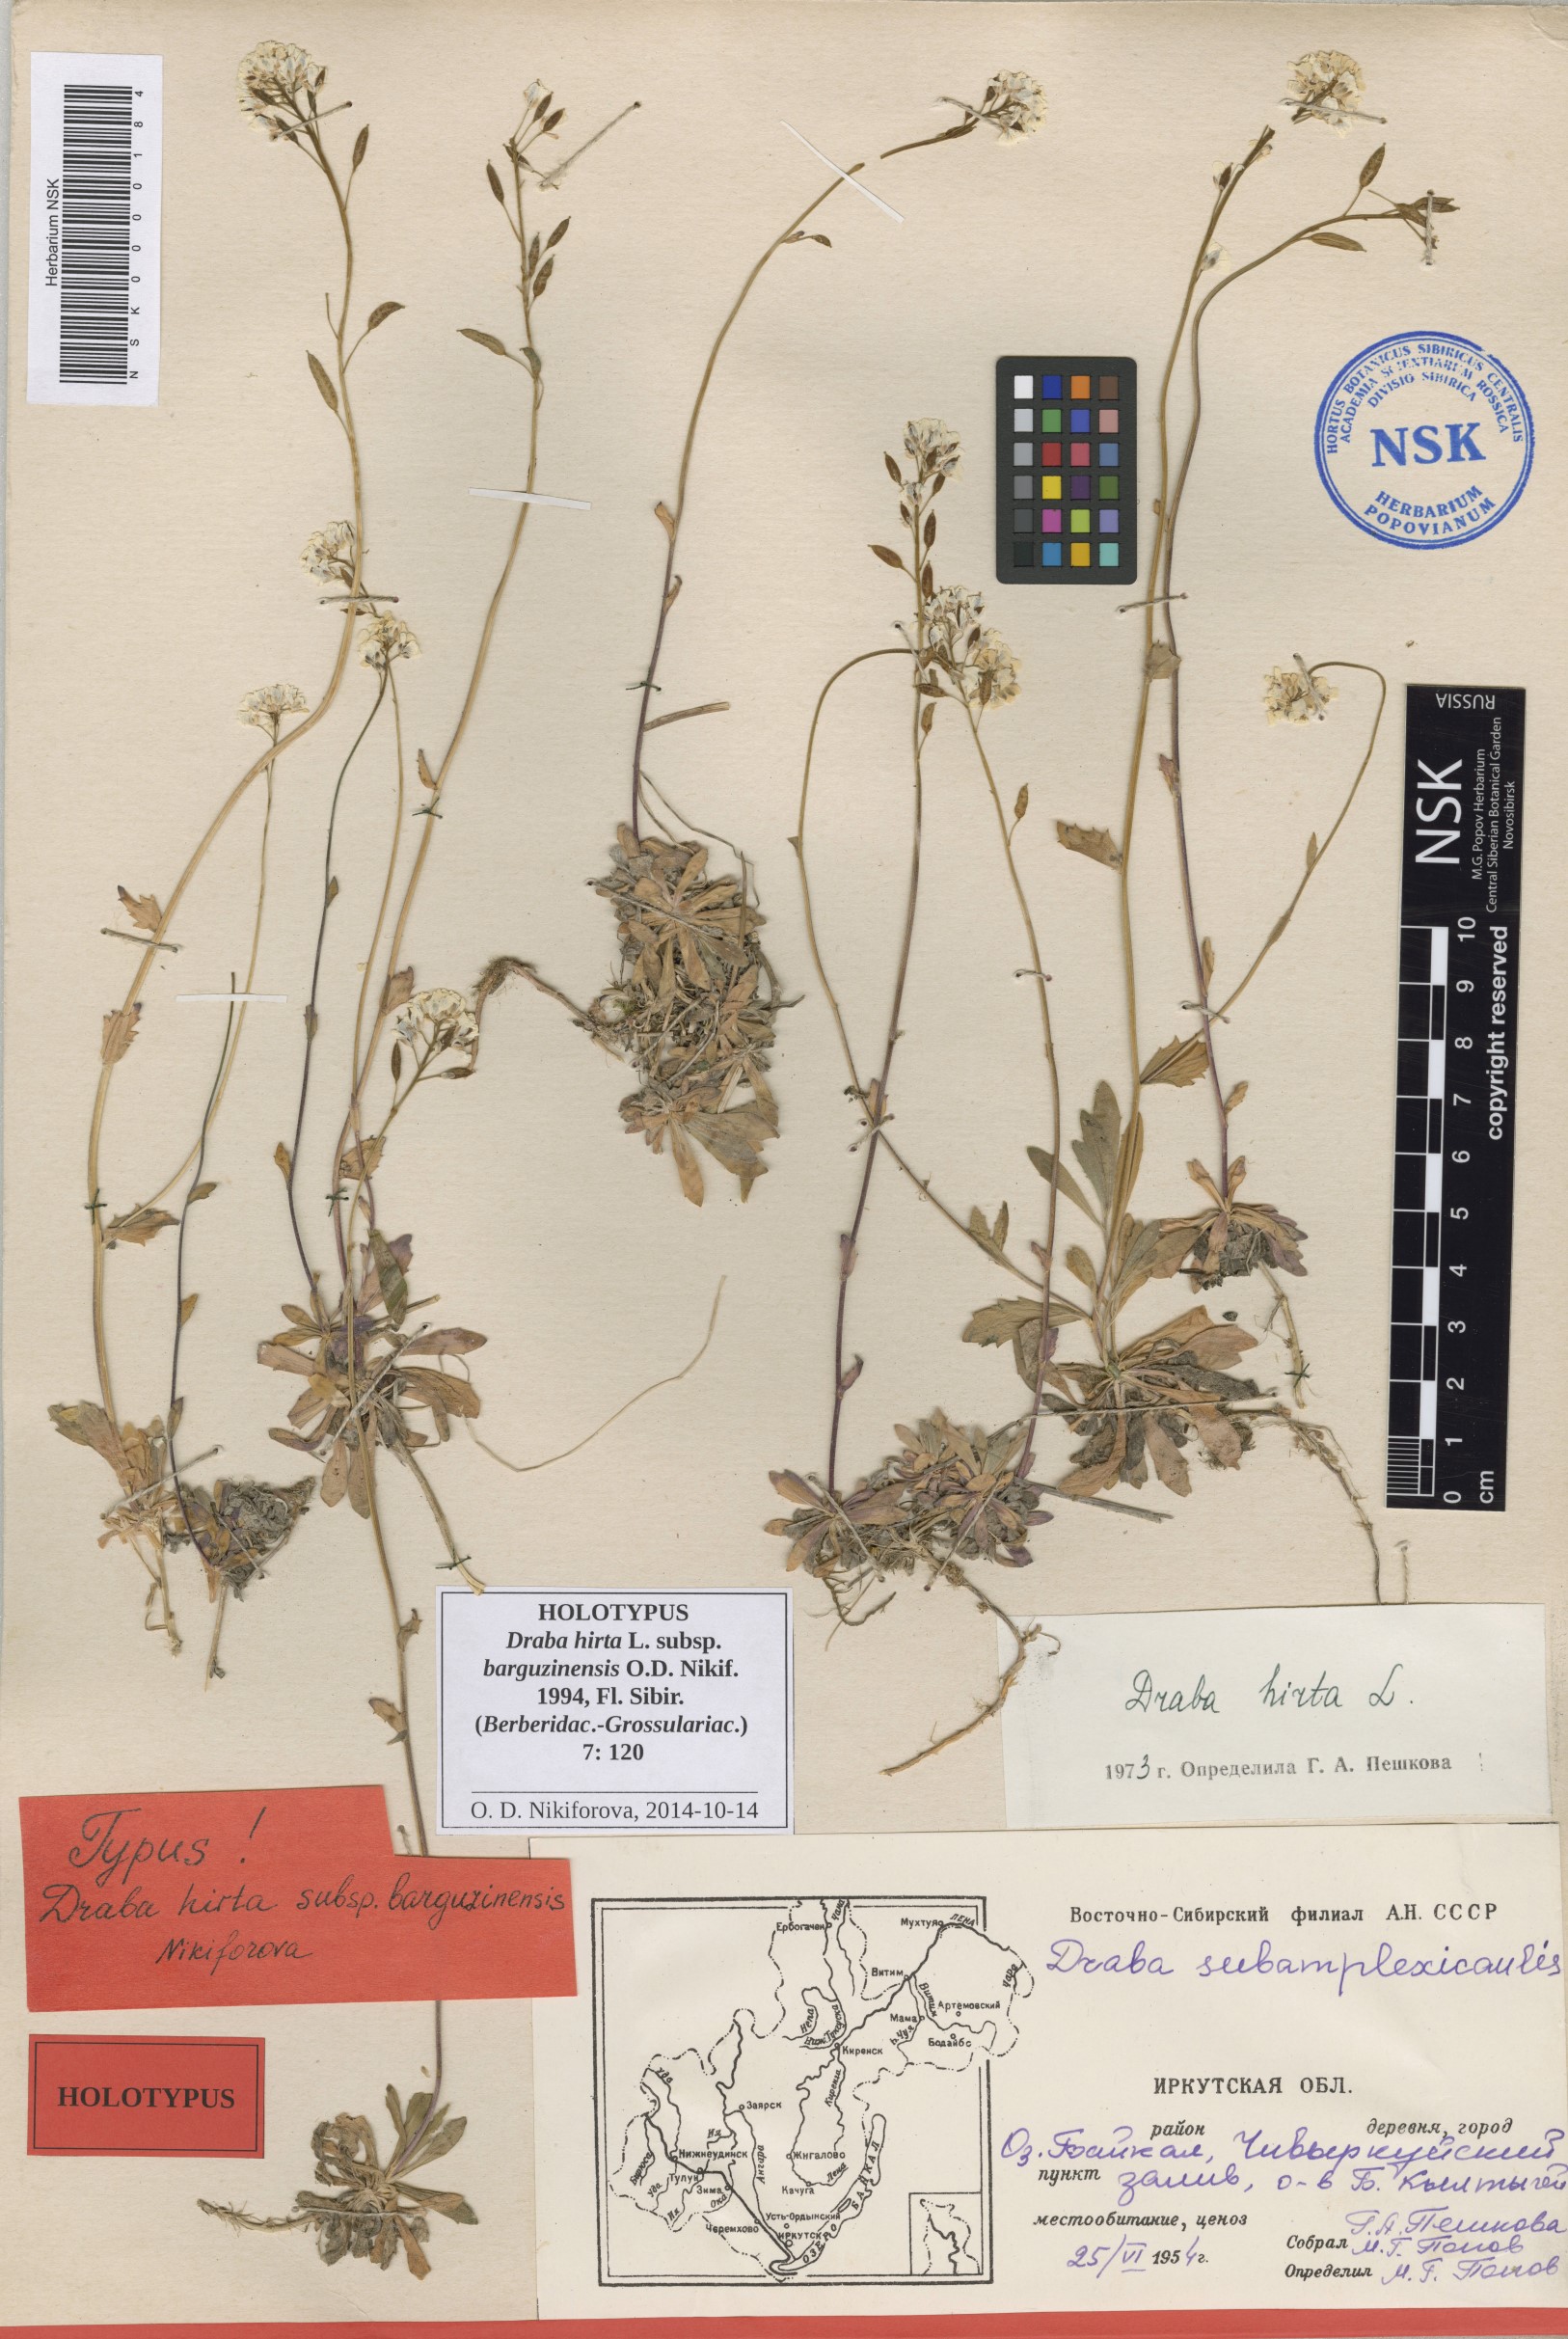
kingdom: Plantae
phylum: Tracheophyta
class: Magnoliopsida
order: Brassicales
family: Brassicaceae
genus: Draba
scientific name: Draba barguzinensis
